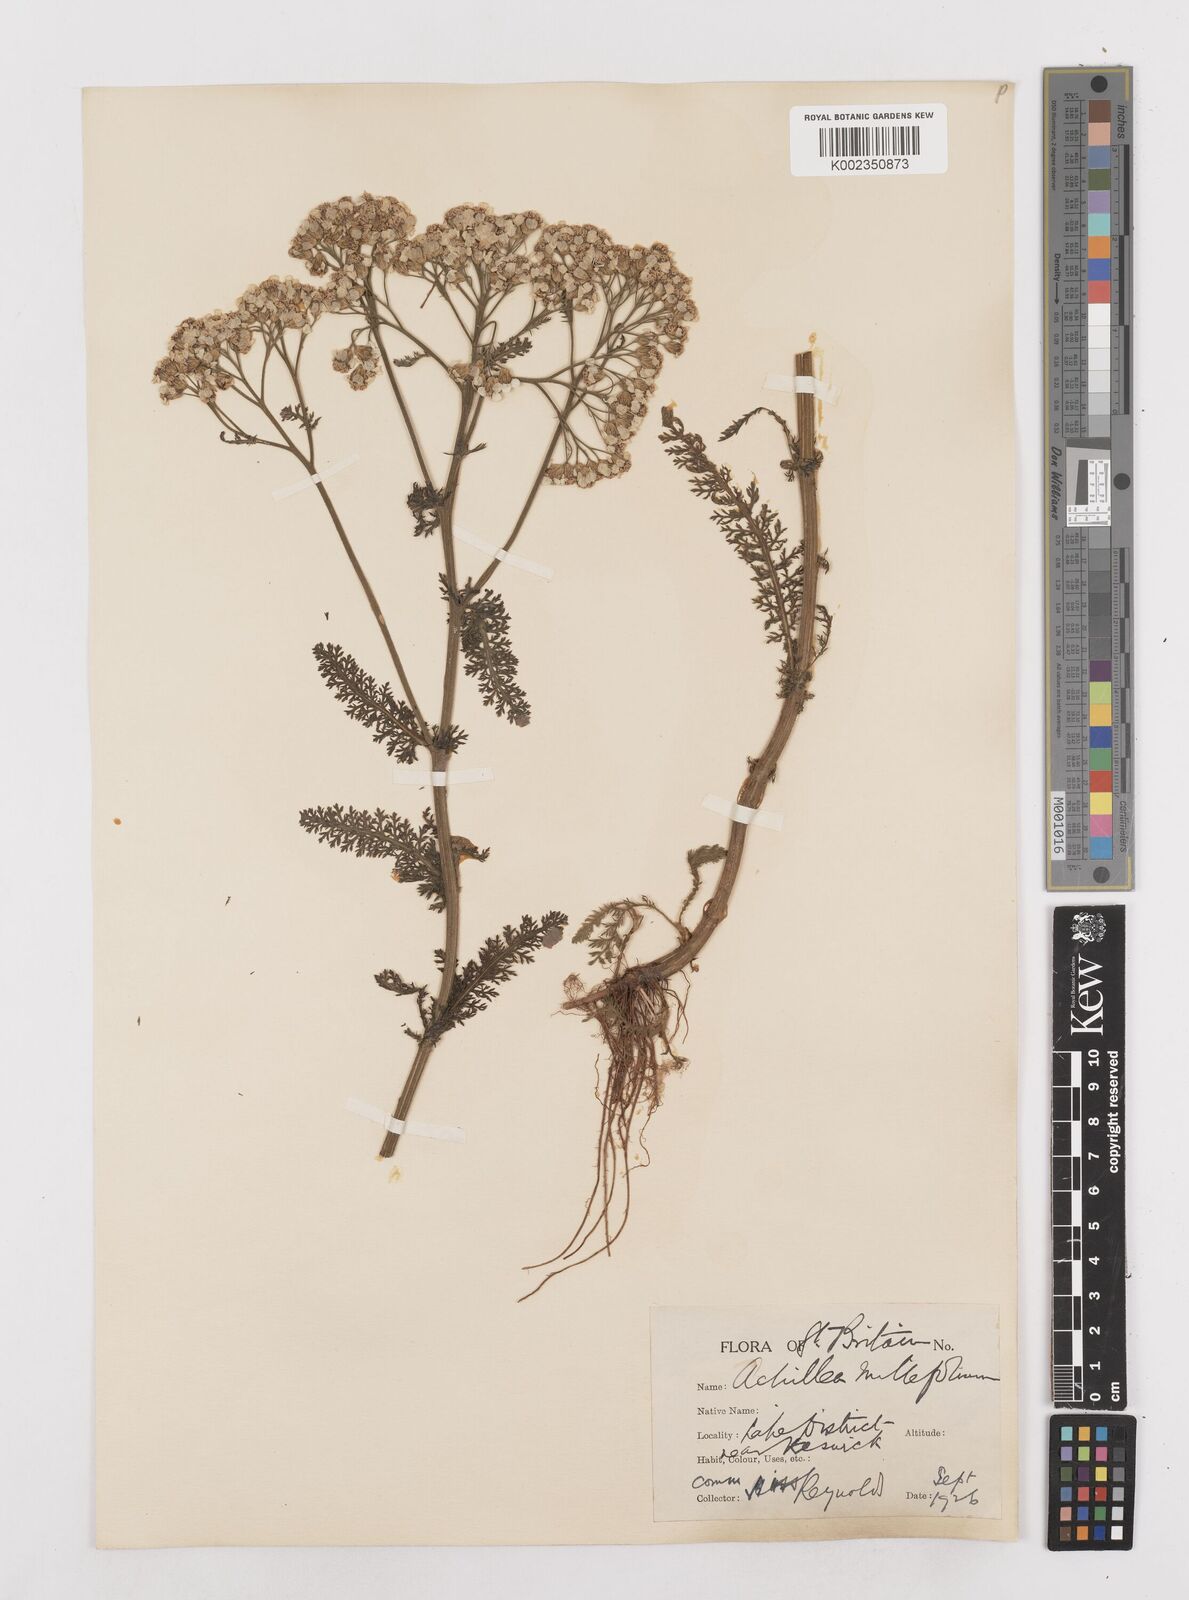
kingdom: Plantae
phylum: Tracheophyta
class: Magnoliopsida
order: Asterales
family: Asteraceae
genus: Achillea
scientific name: Achillea millefolium
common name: Yarrow
